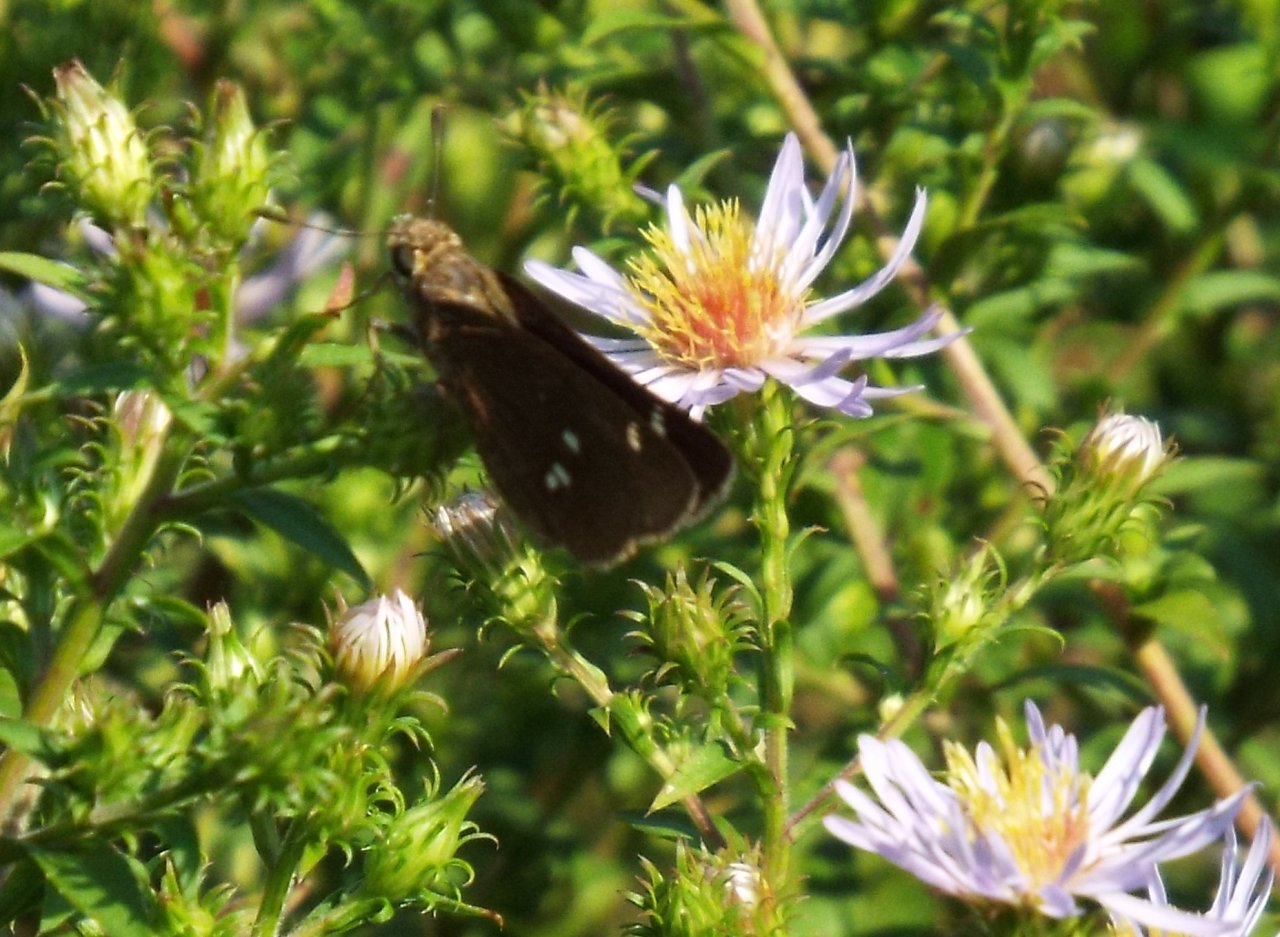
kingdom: Animalia
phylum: Arthropoda
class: Insecta
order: Lepidoptera
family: Hesperiidae
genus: Oligoria
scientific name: Oligoria maculata
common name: Twin-spot Skipper
